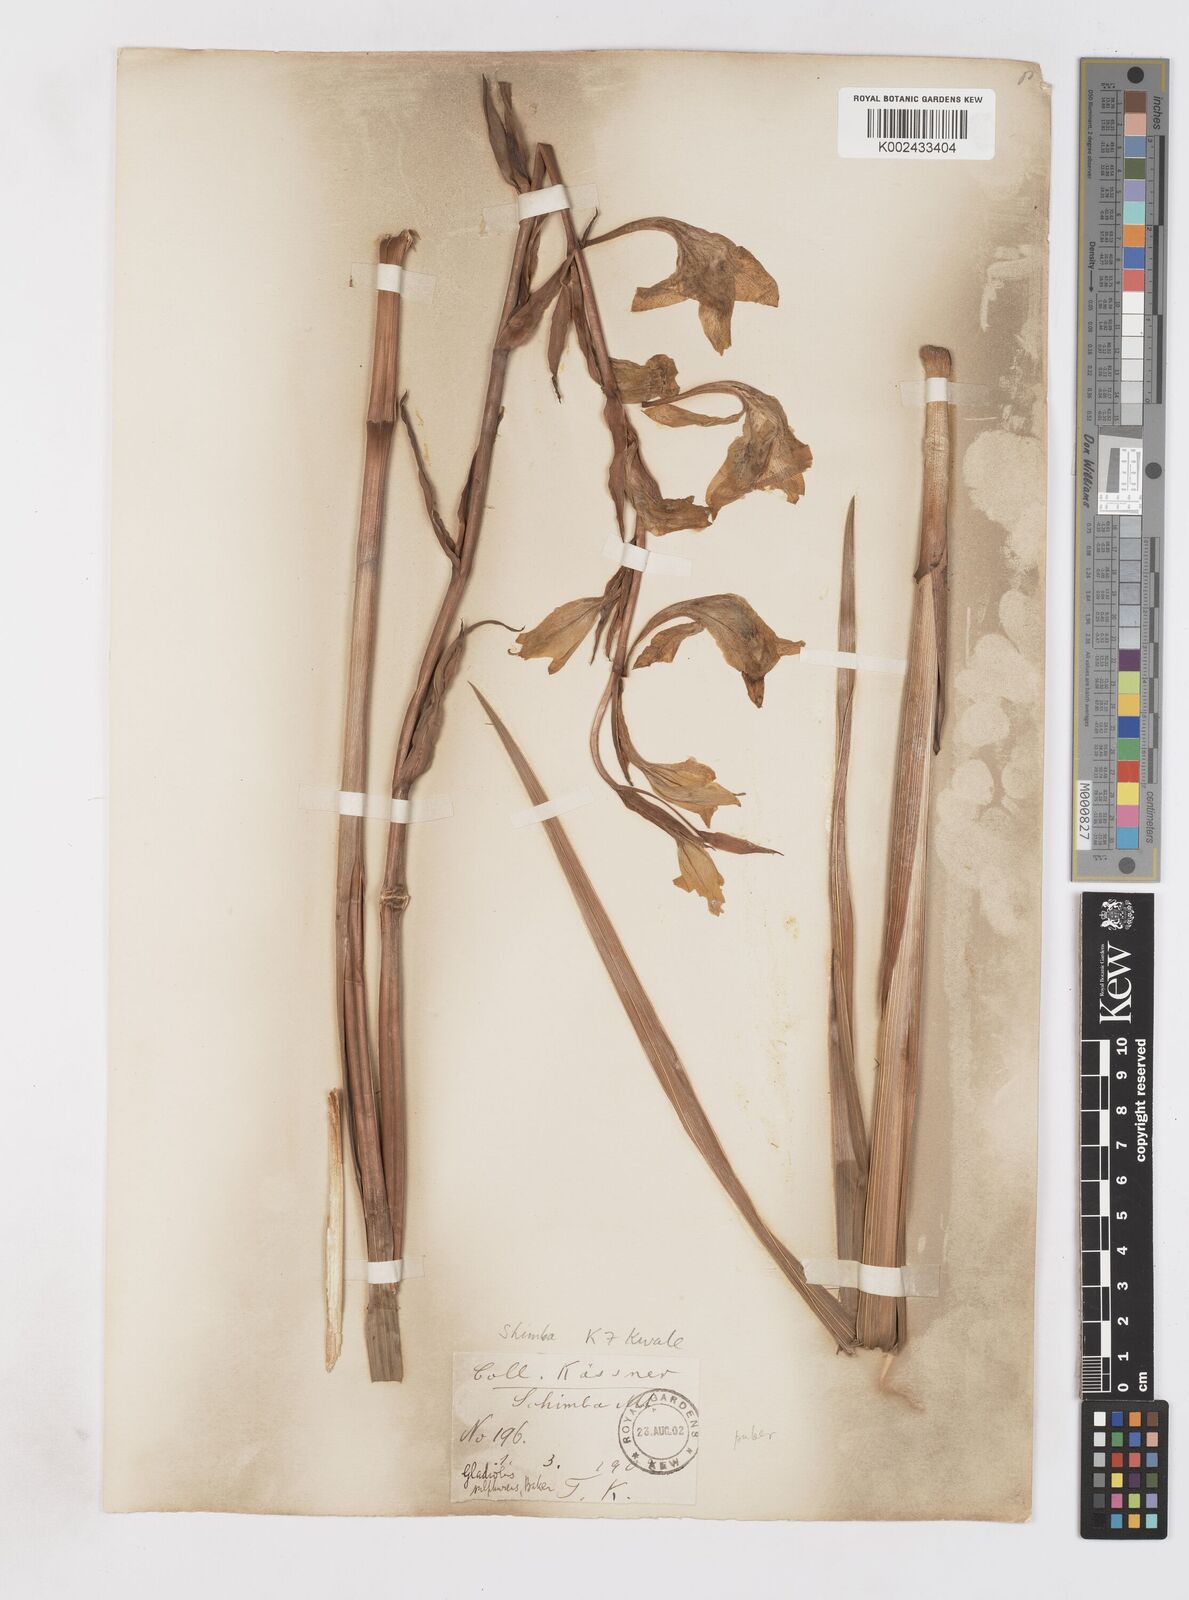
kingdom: Plantae
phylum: Tracheophyta
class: Liliopsida
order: Asparagales
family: Iridaceae
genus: Gladiolus
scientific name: Gladiolus dalenii
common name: Cornflag
